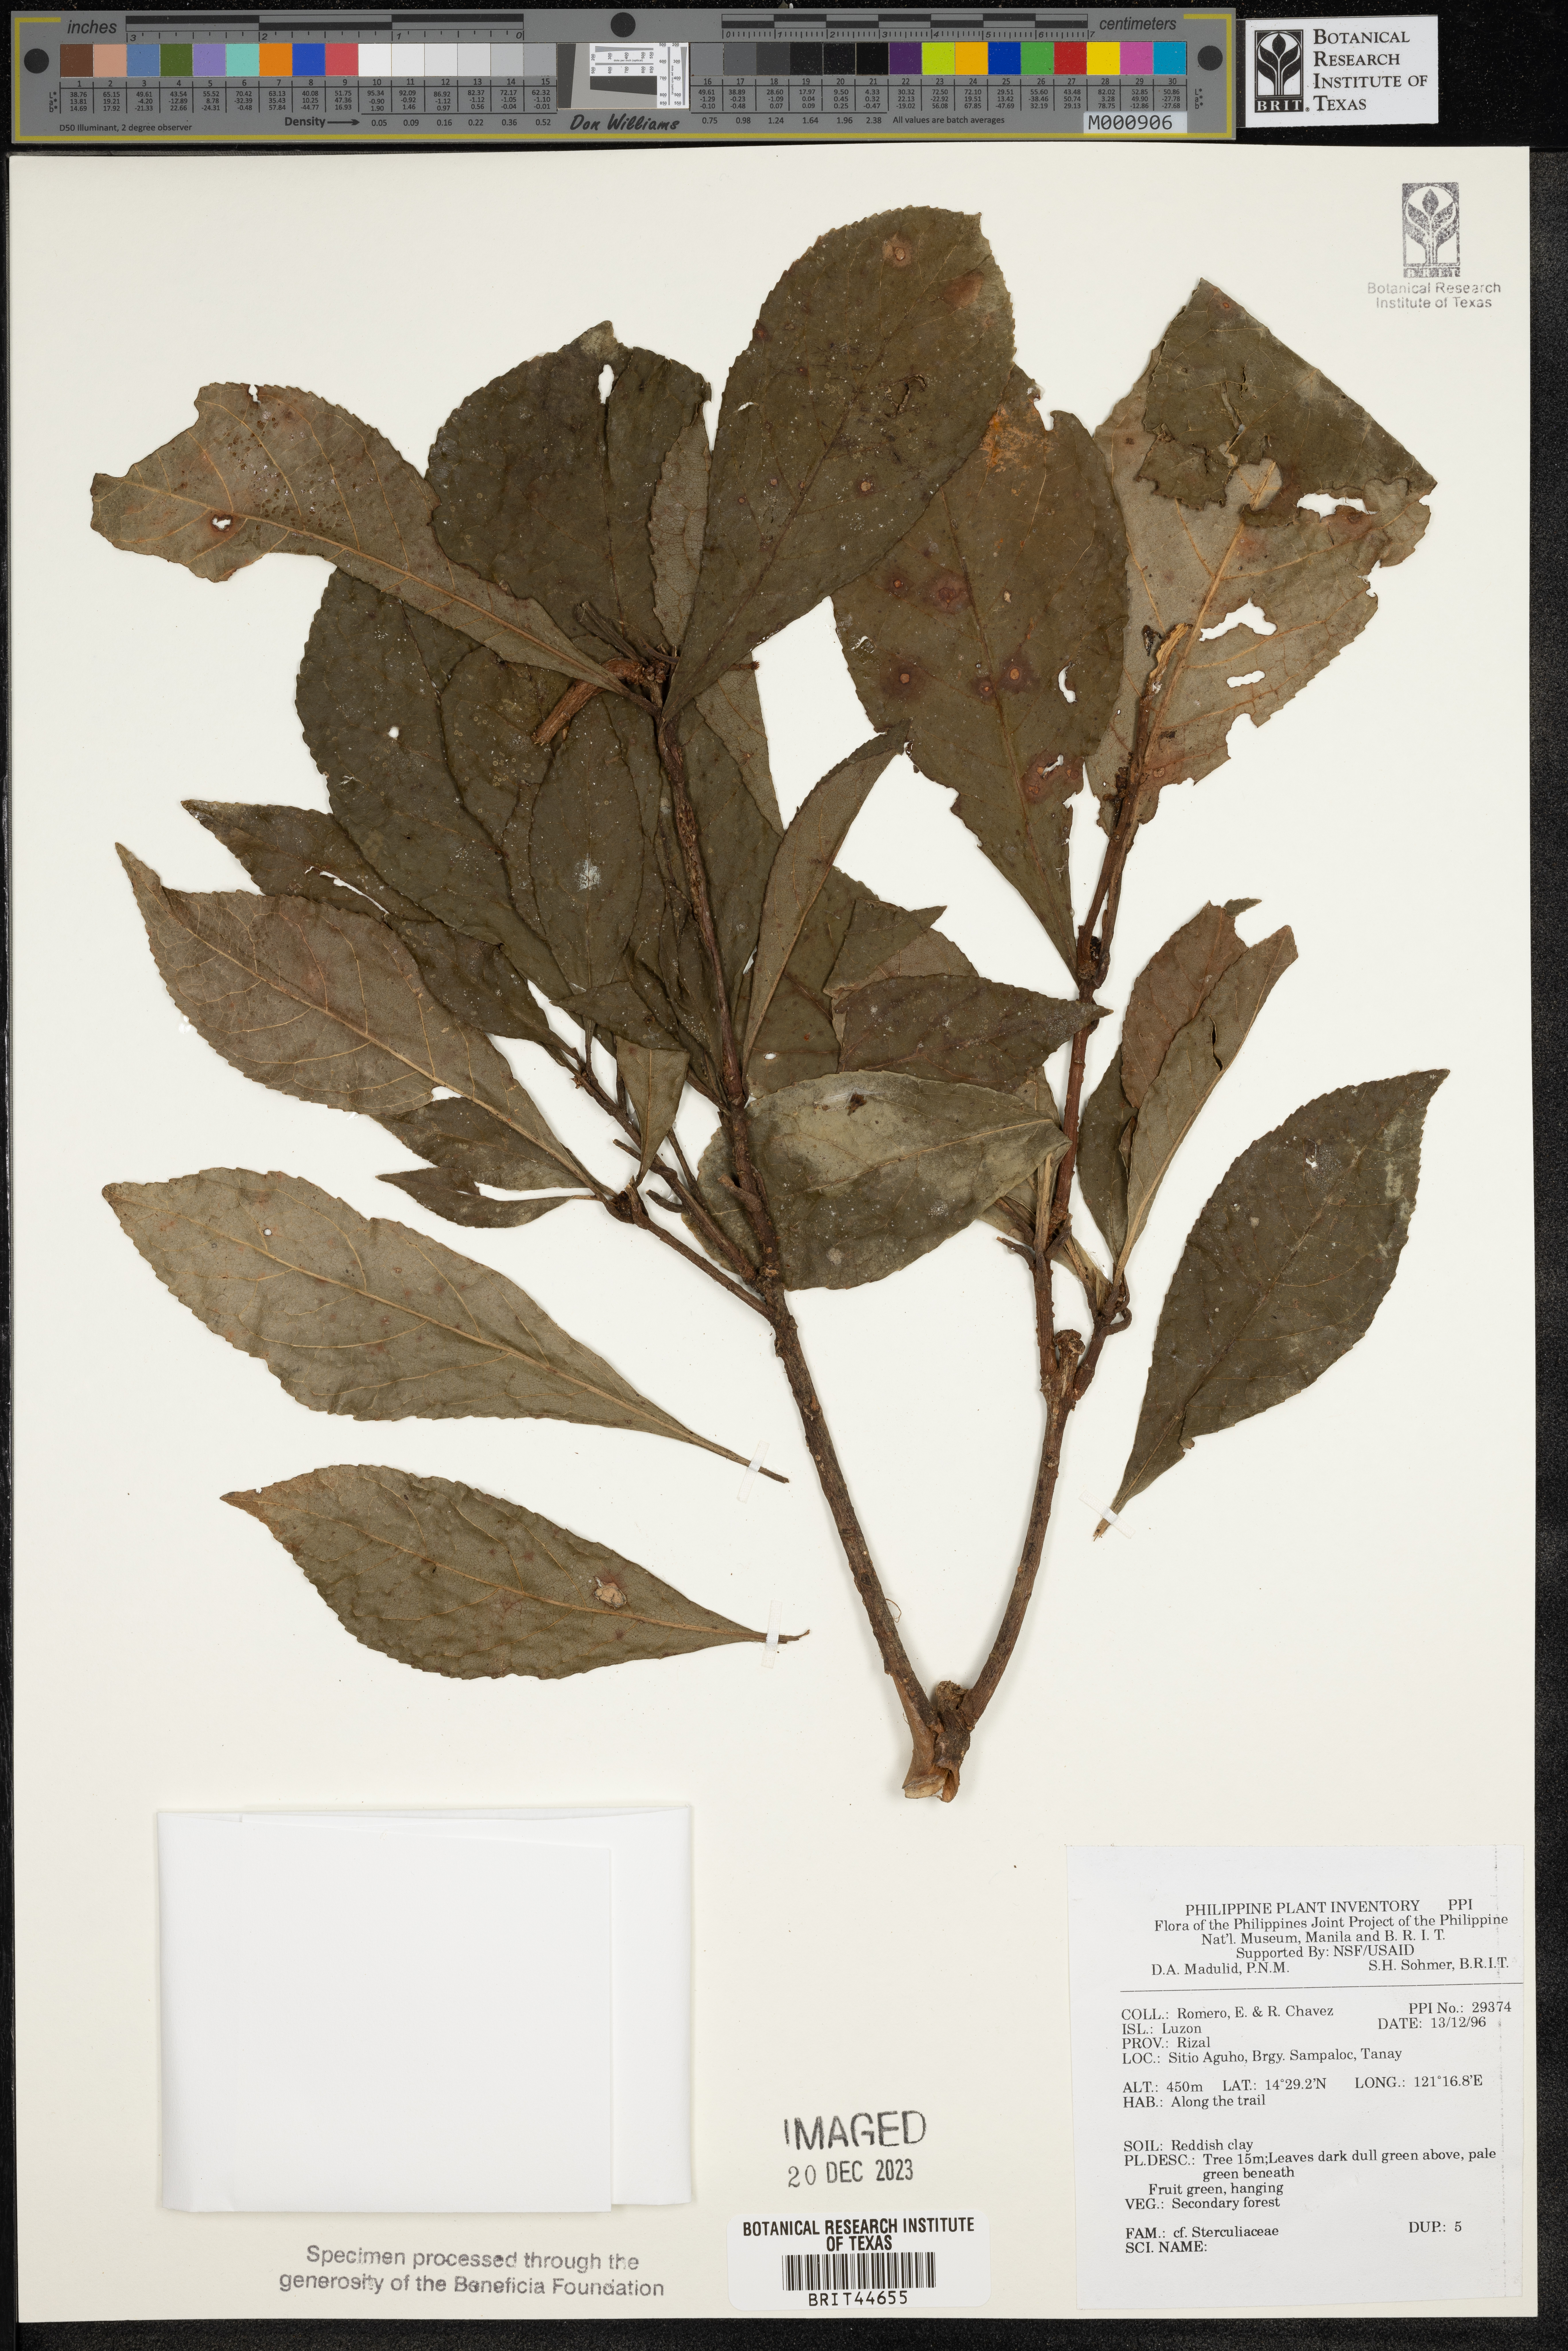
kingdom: Plantae
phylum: Tracheophyta
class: Magnoliopsida
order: Malvales
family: Sterculiaceae
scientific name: Sterculiaceae
